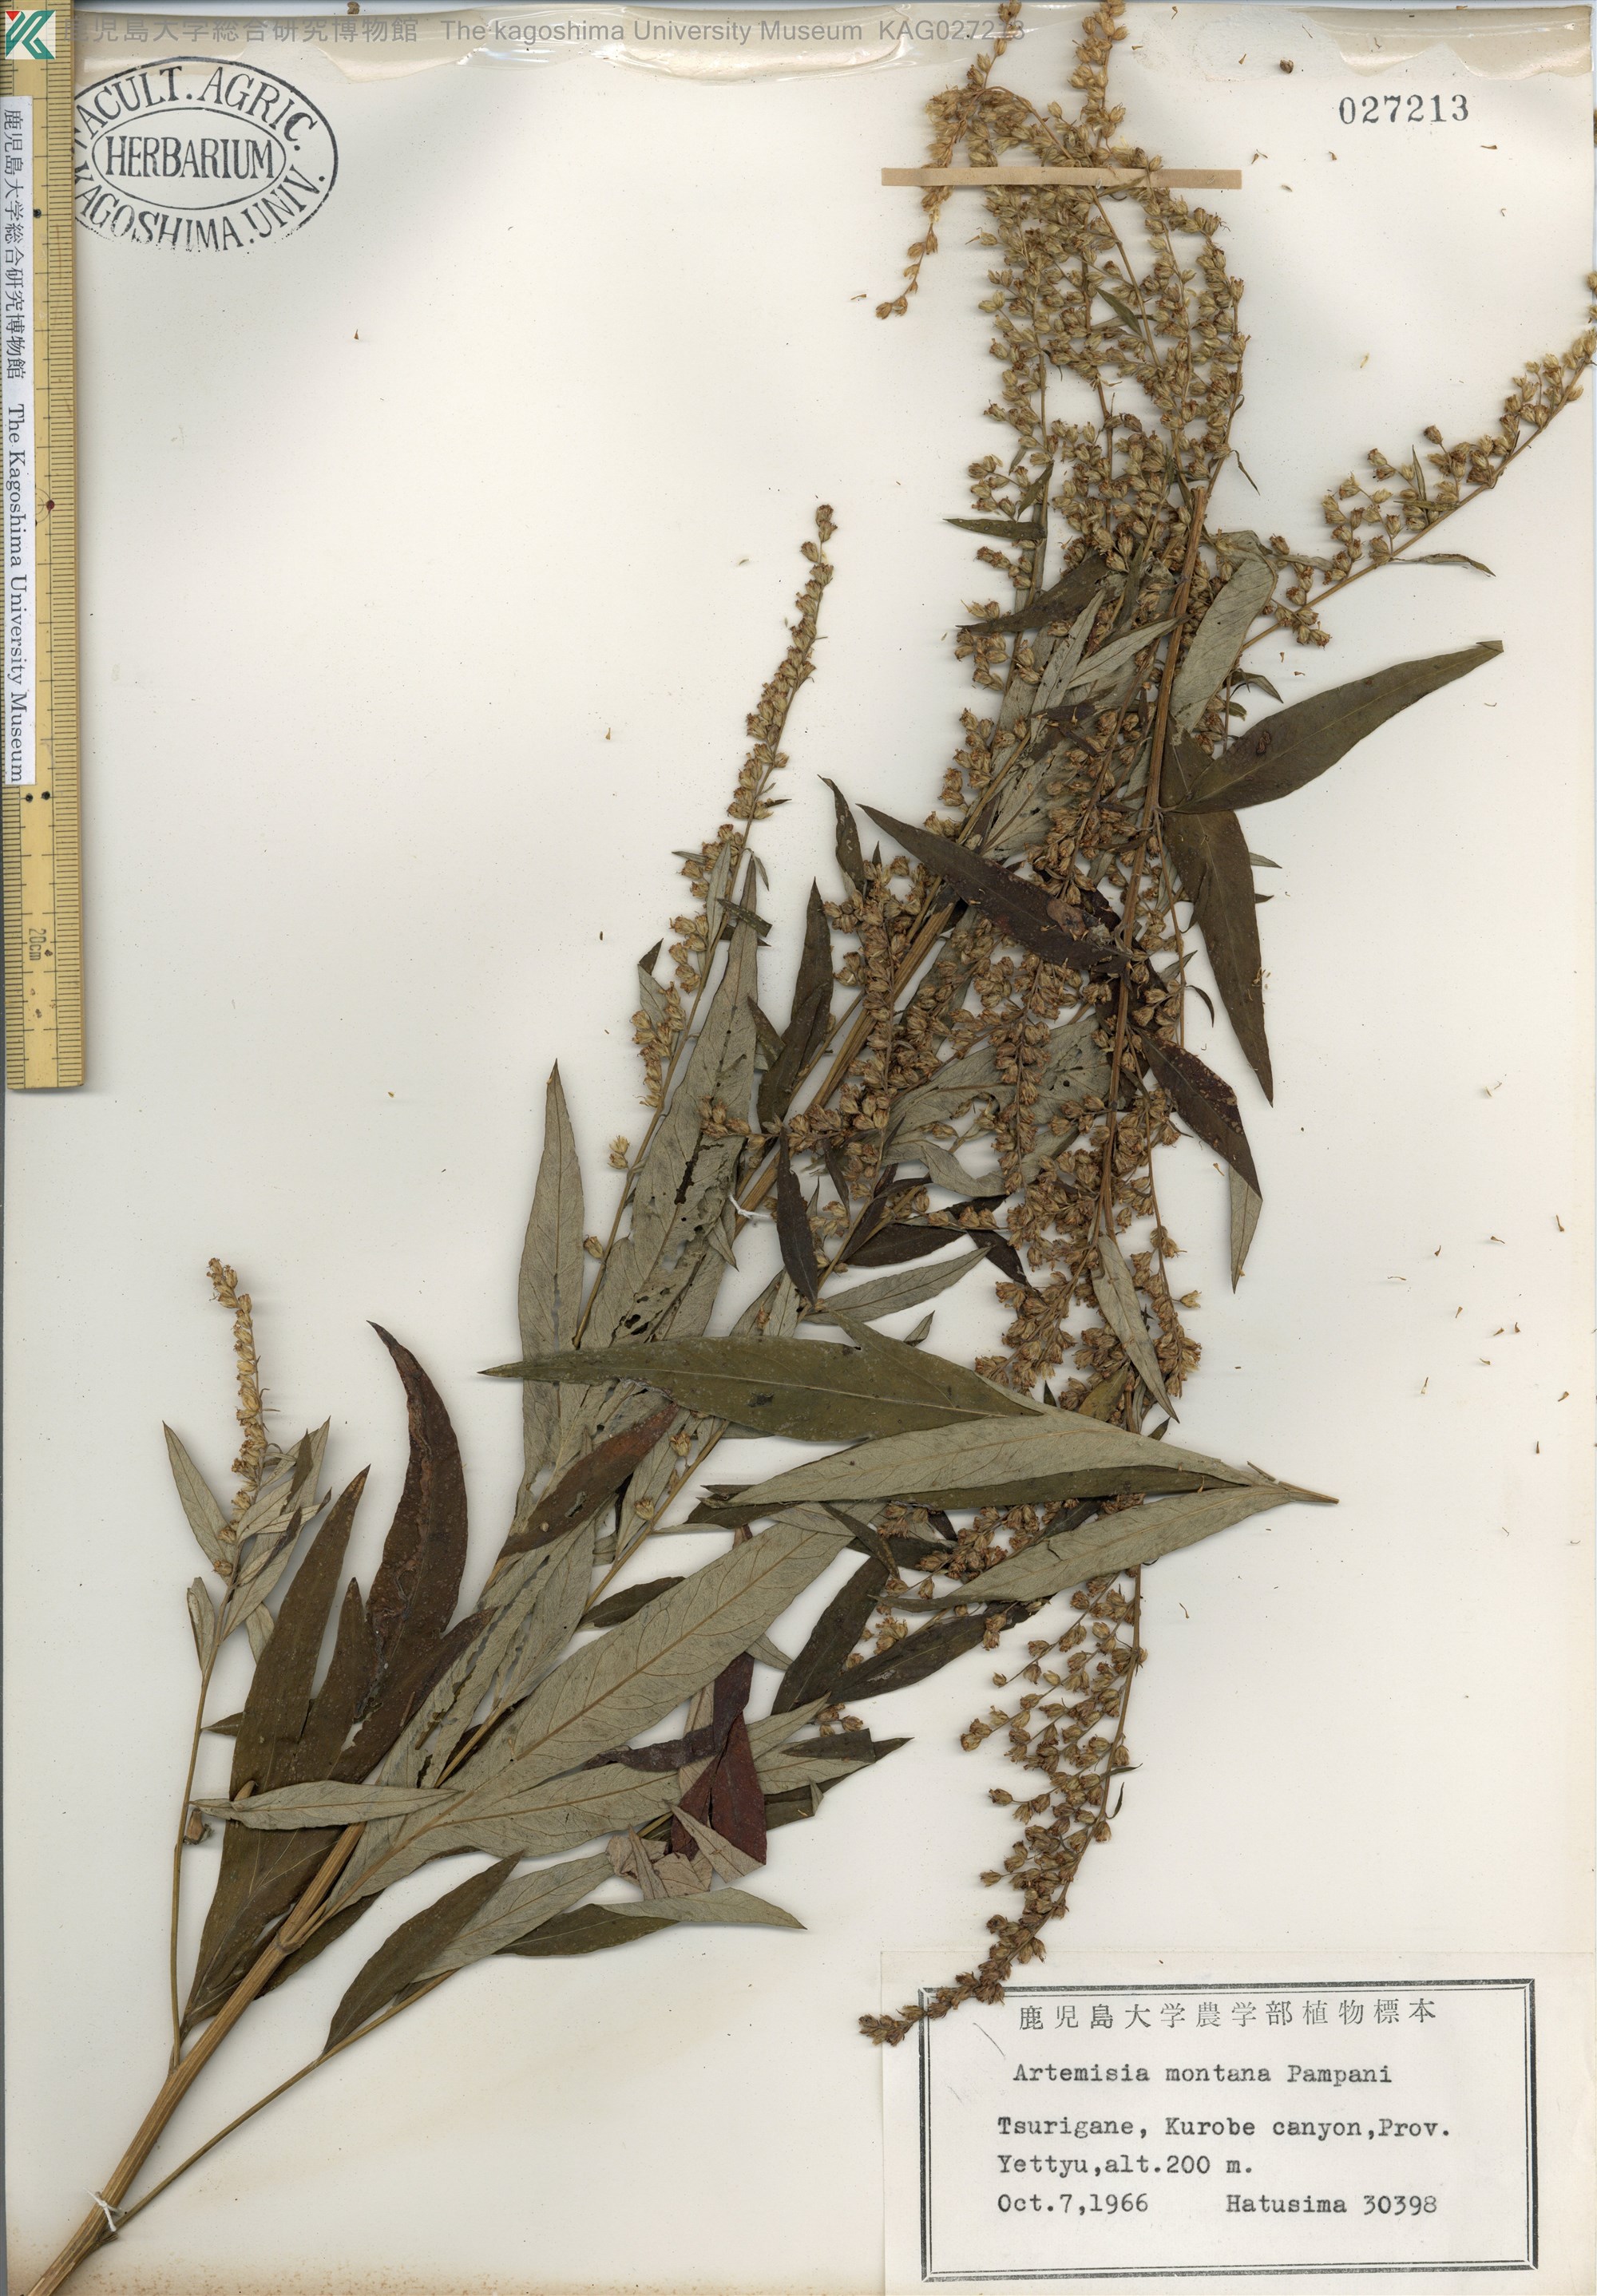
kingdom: Plantae
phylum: Tracheophyta
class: Magnoliopsida
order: Asterales
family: Asteraceae
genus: Artemisia
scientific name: Artemisia montana
